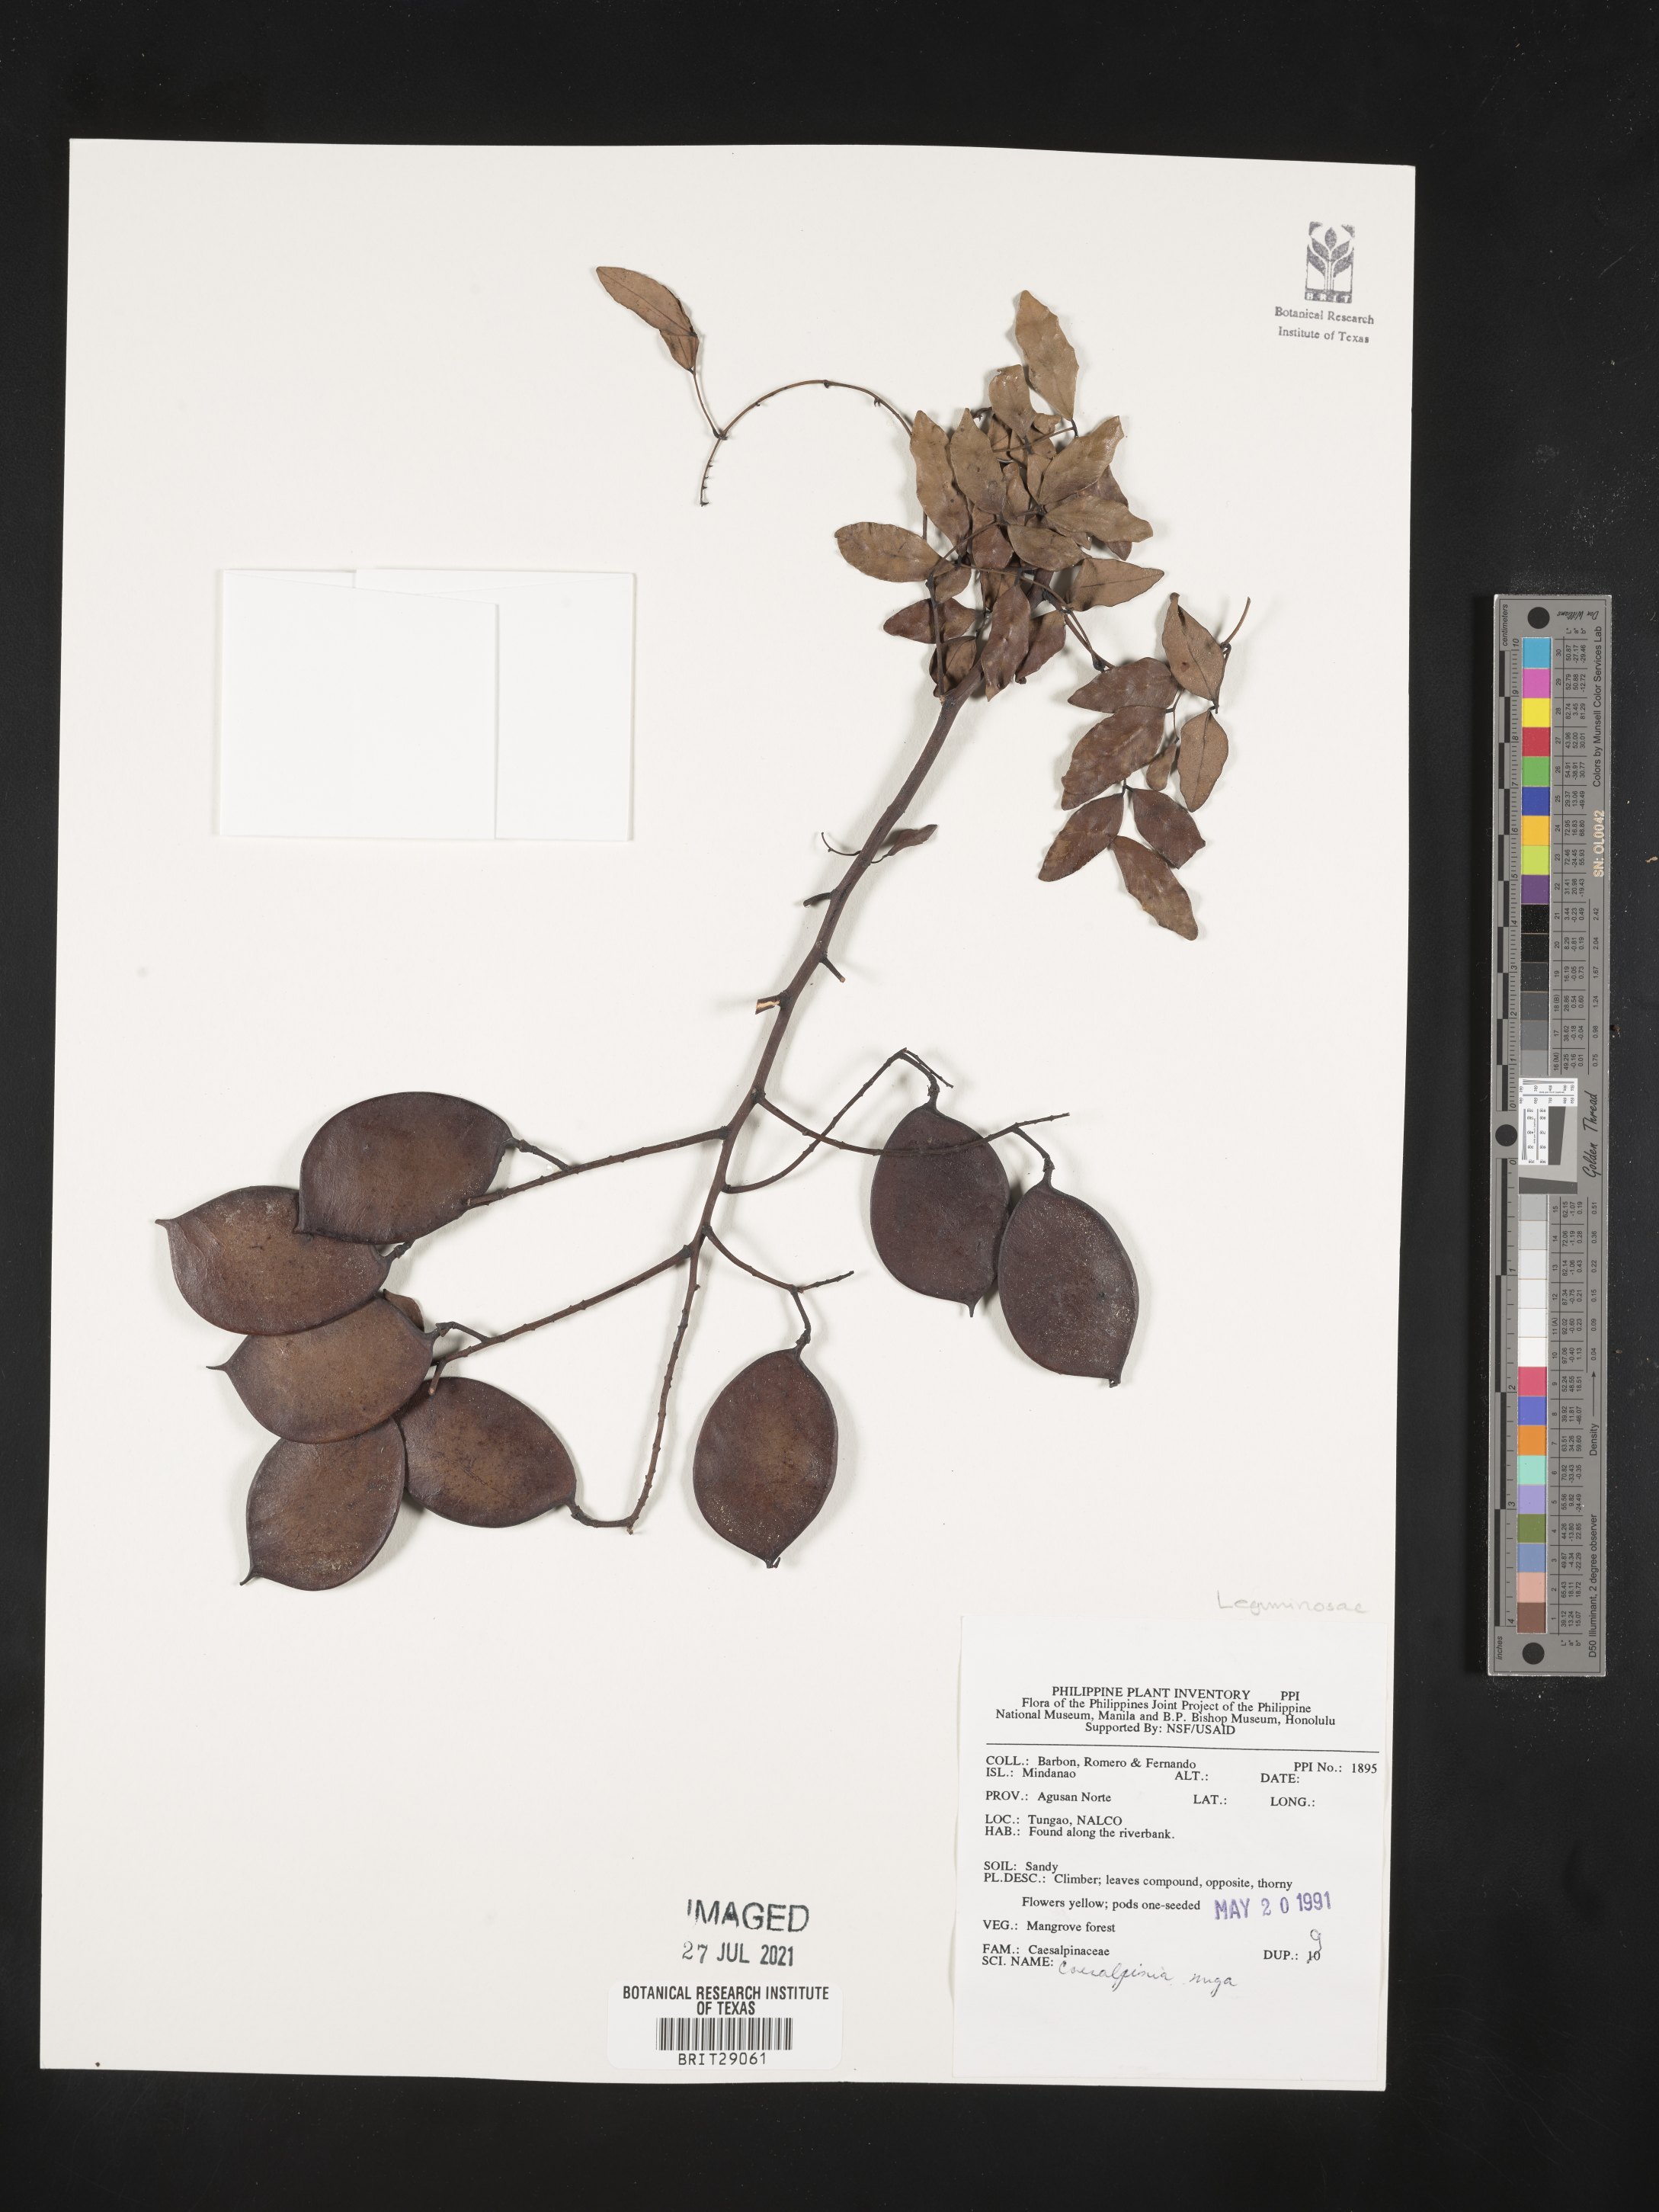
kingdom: Plantae
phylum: Tracheophyta
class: Magnoliopsida
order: Fabales
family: Fabaceae
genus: Caesalpinia
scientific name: Caesalpinia Ticanto crista
